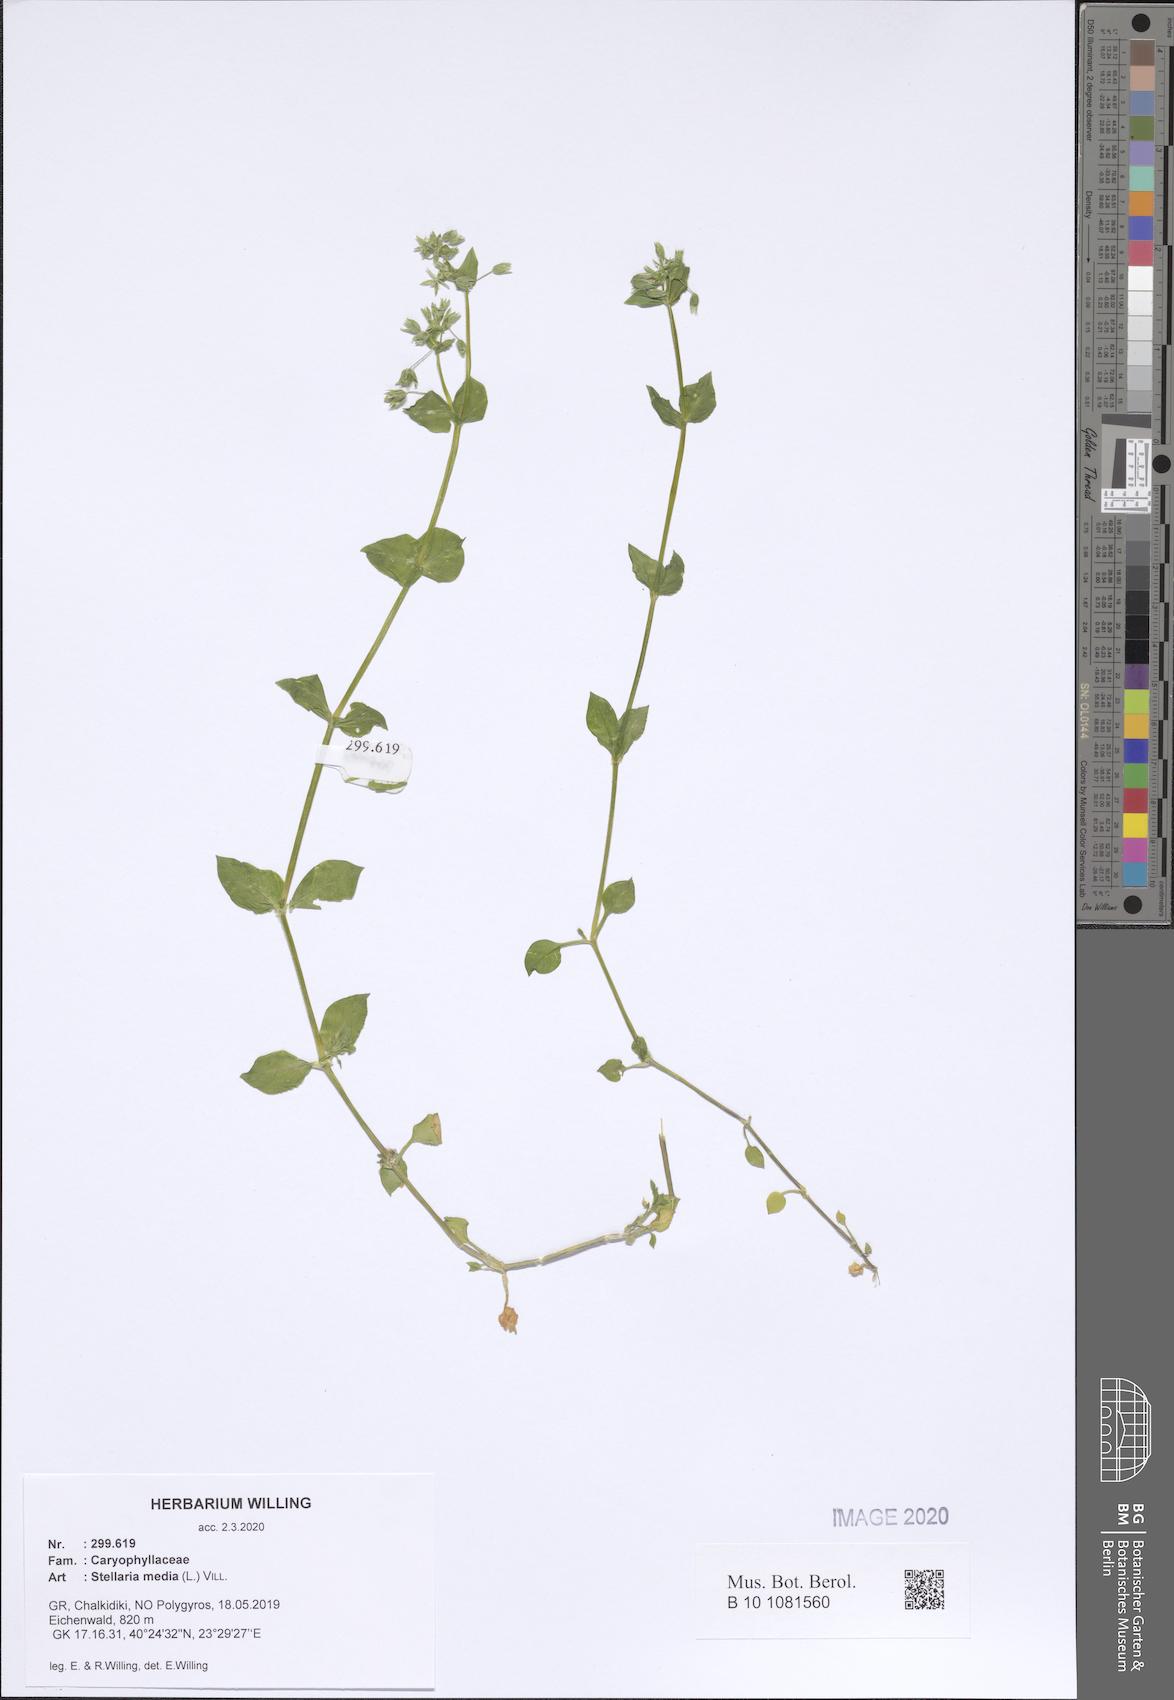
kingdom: Plantae
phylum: Tracheophyta
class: Magnoliopsida
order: Caryophyllales
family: Caryophyllaceae
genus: Stellaria
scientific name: Stellaria media
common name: Common chickweed
